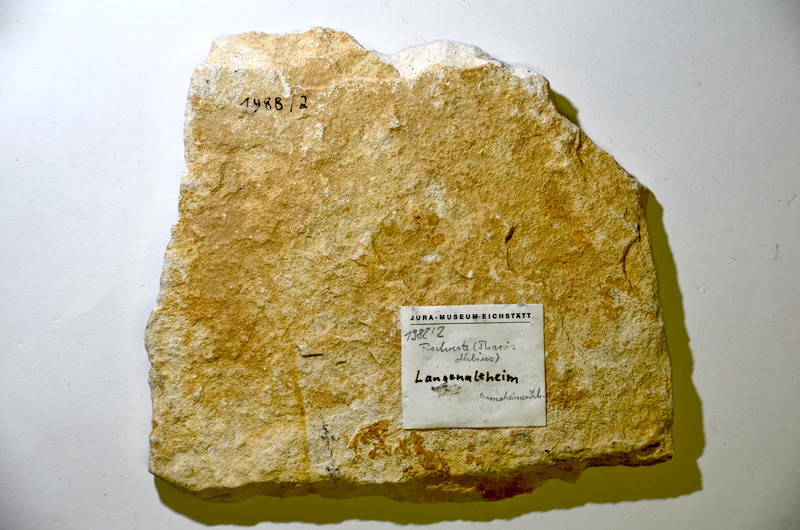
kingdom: Animalia
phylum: Chordata
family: Ascalaboidae
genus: Tharsis
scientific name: Tharsis dubius
